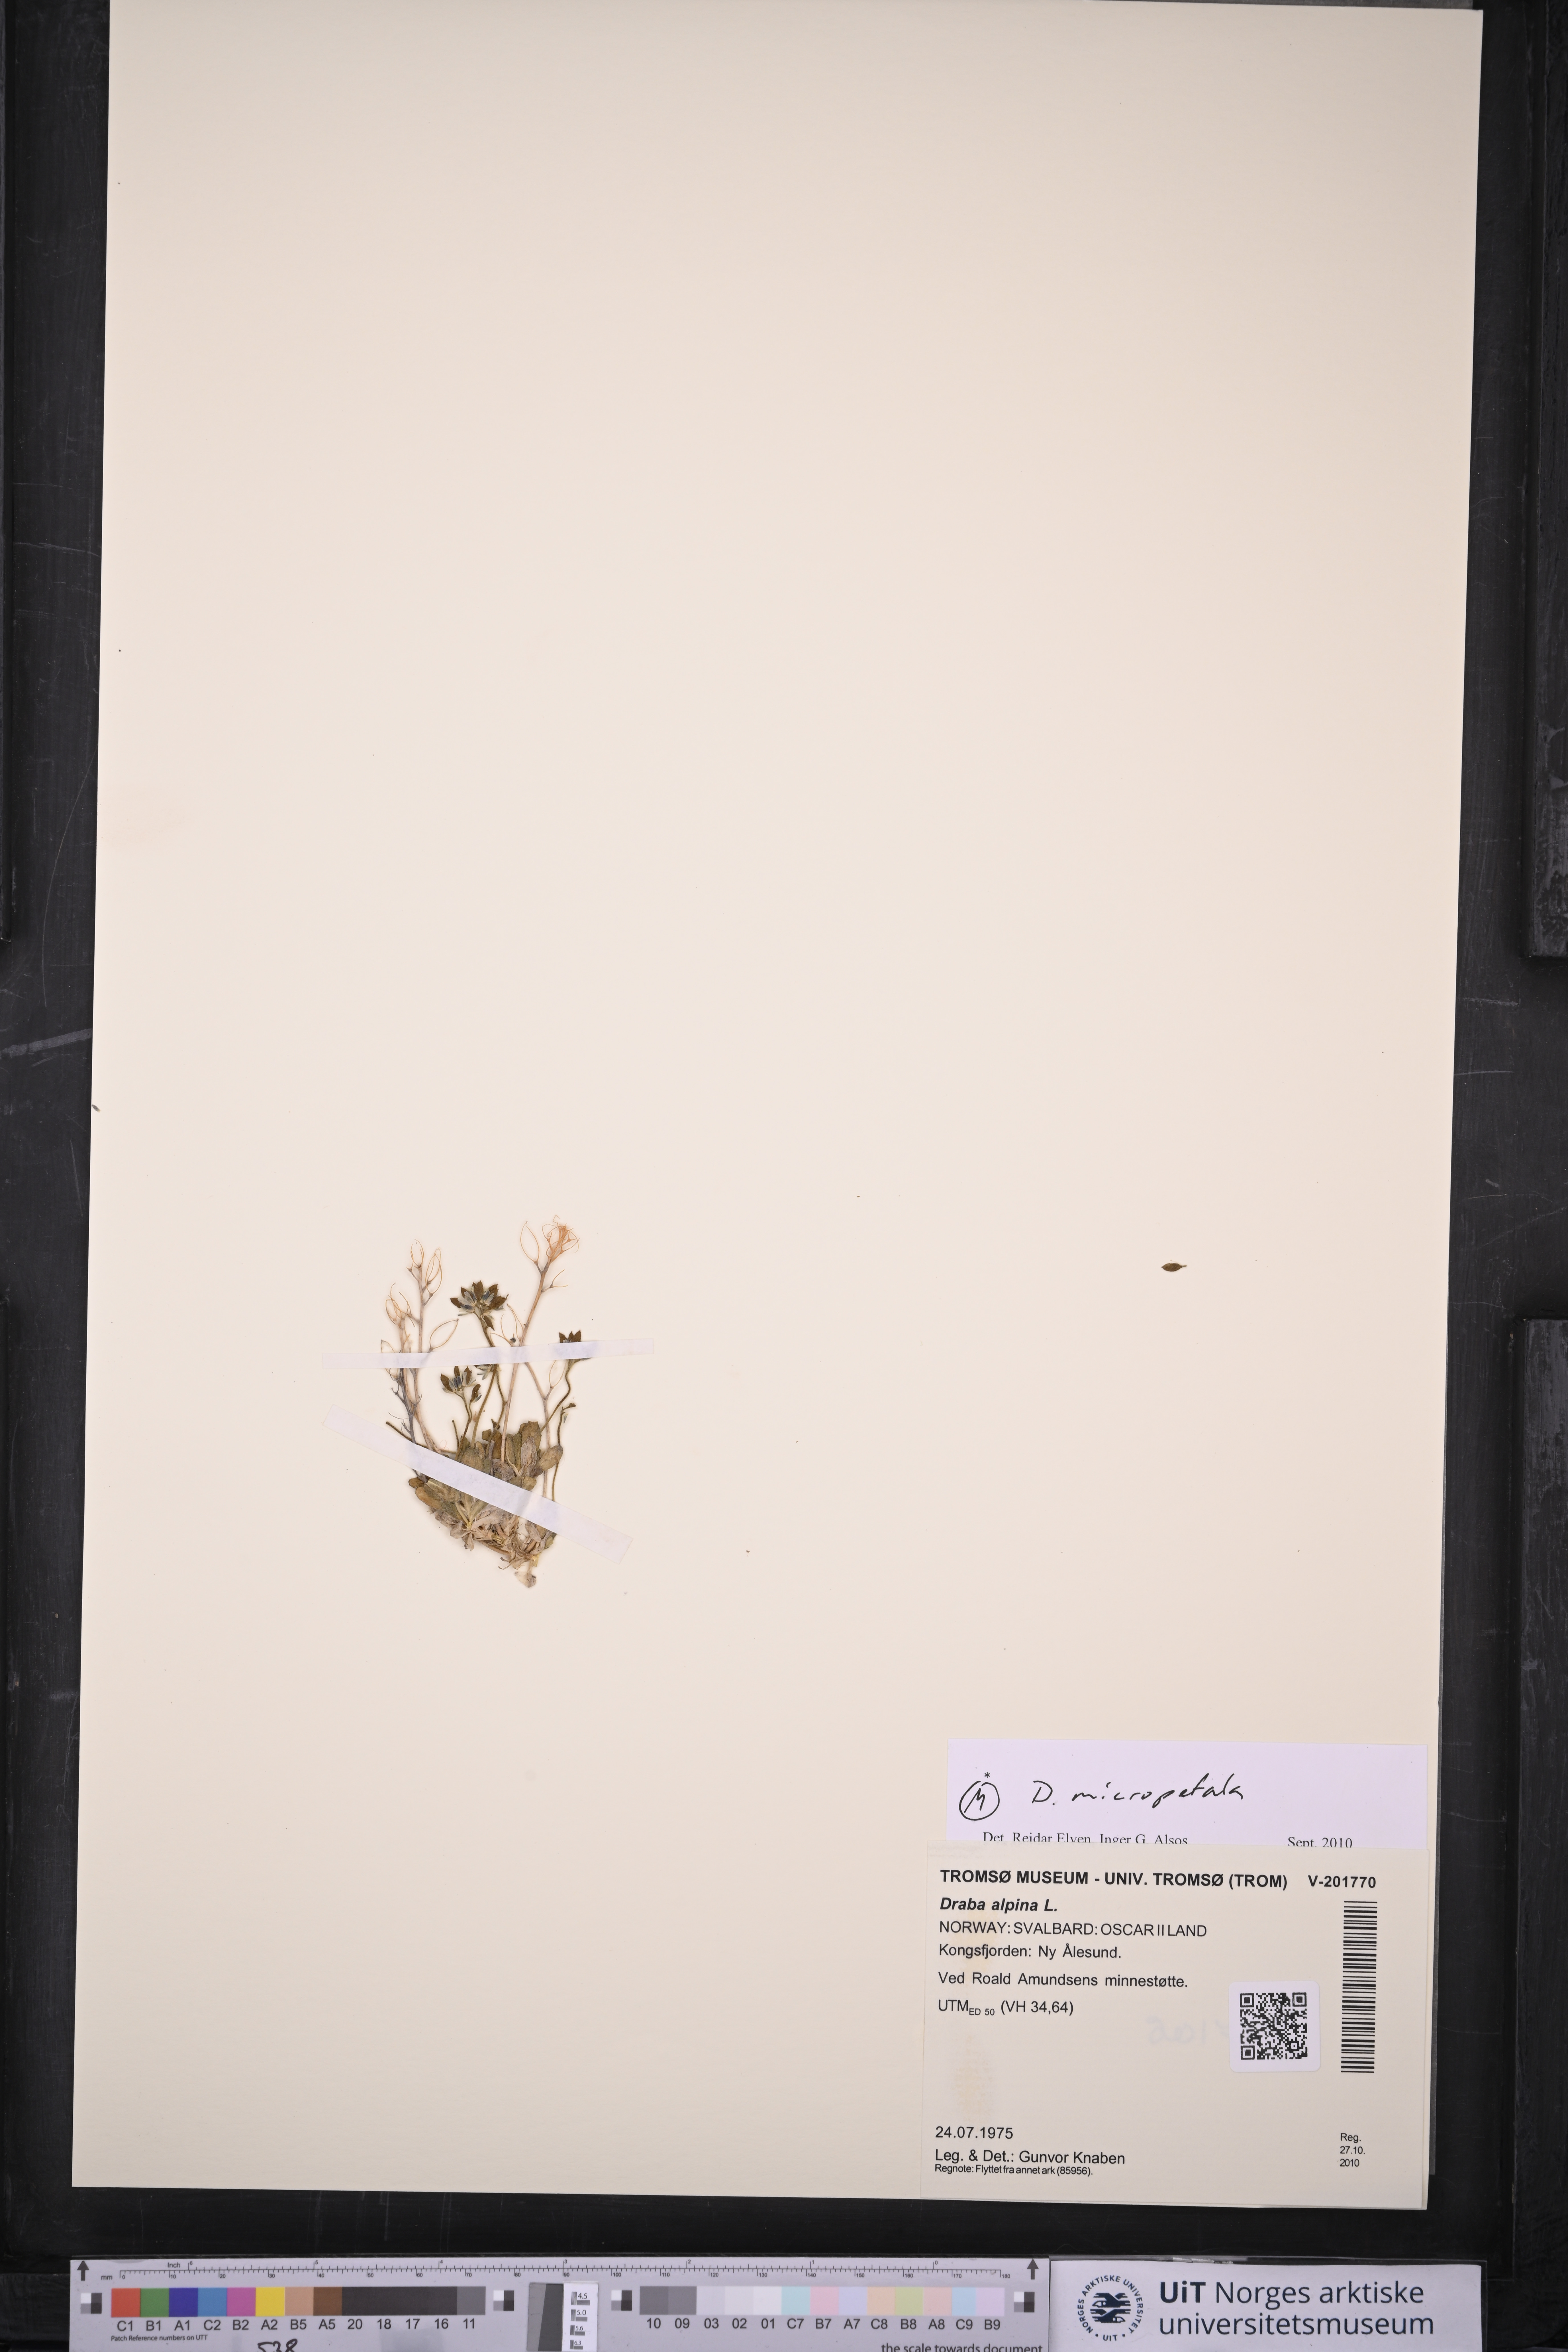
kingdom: Plantae
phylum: Tracheophyta
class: Magnoliopsida
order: Brassicales
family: Brassicaceae
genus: Draba
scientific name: Draba micropetala
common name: Small-flowered draba
